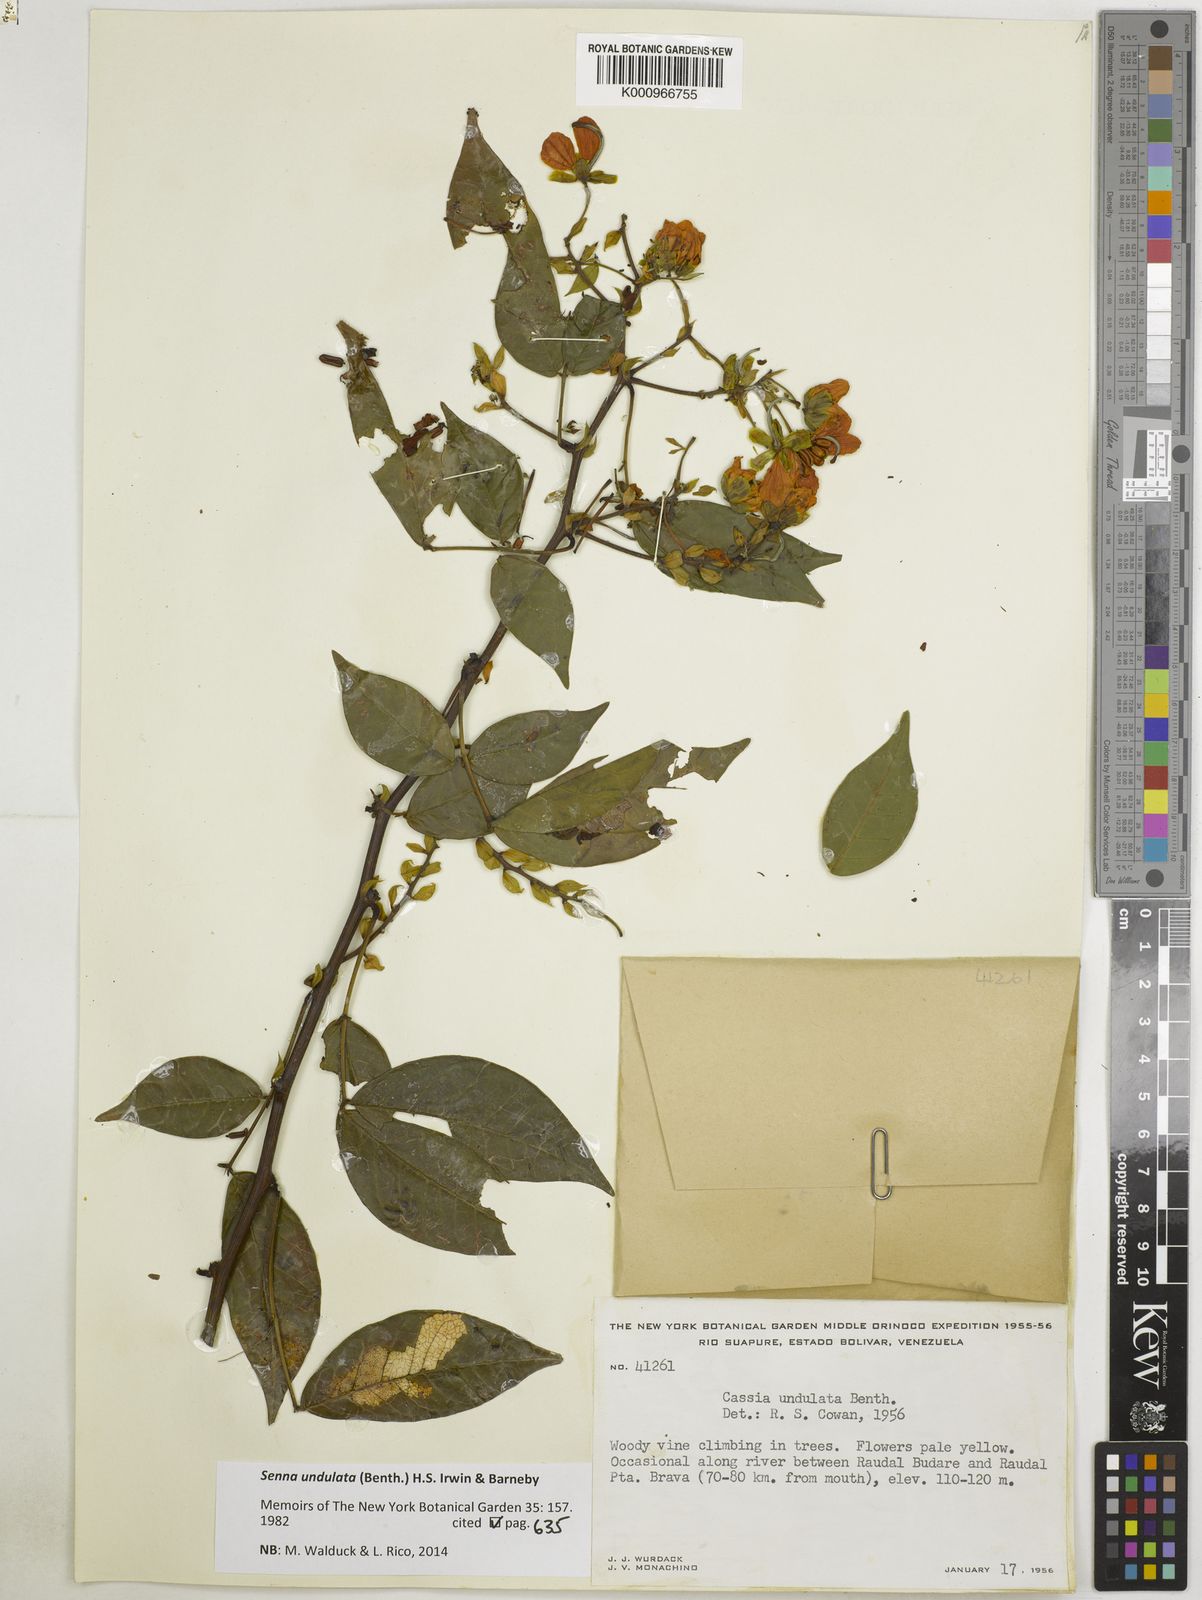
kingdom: Plantae
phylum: Tracheophyta
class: Magnoliopsida
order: Fabales
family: Fabaceae
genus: Senna
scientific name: Senna undulata
